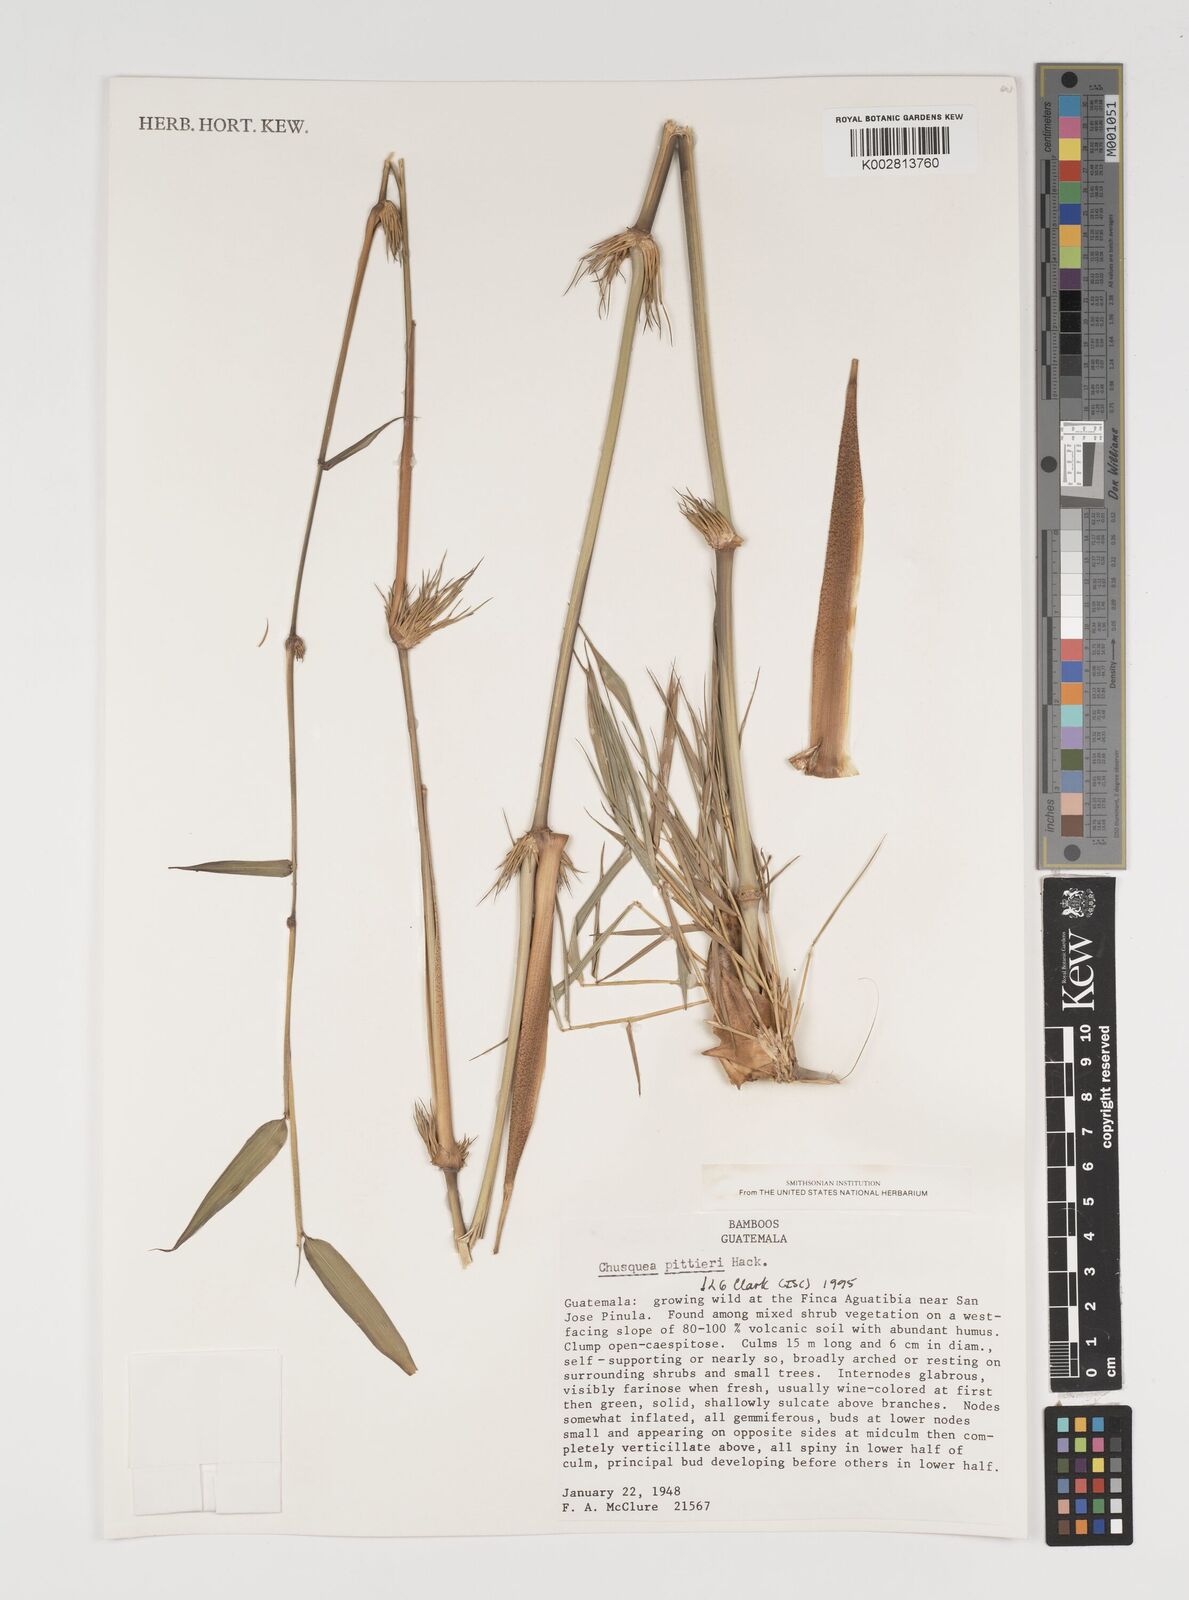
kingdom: Plantae
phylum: Tracheophyta
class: Liliopsida
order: Poales
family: Poaceae
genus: Chusquea
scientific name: Chusquea pittieri
